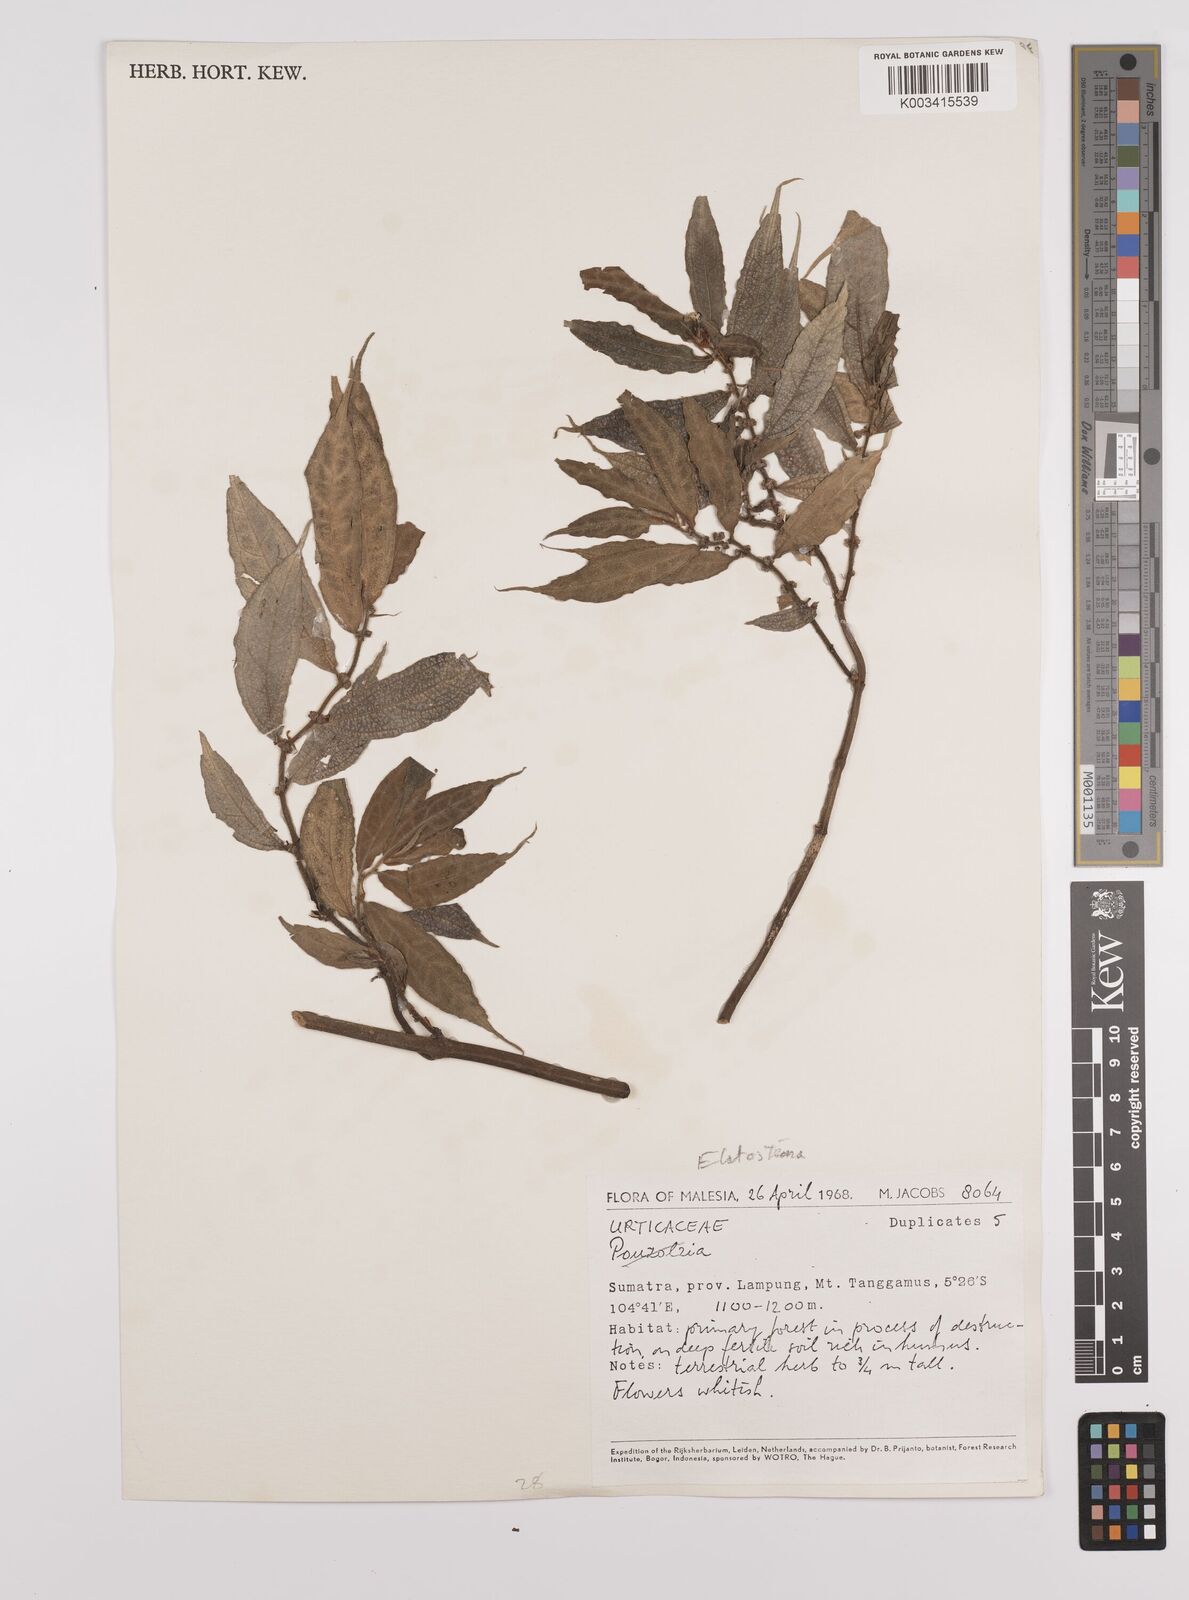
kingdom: Plantae
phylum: Tracheophyta
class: Magnoliopsida
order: Rosales
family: Urticaceae
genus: Elatostema
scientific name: Elatostema
